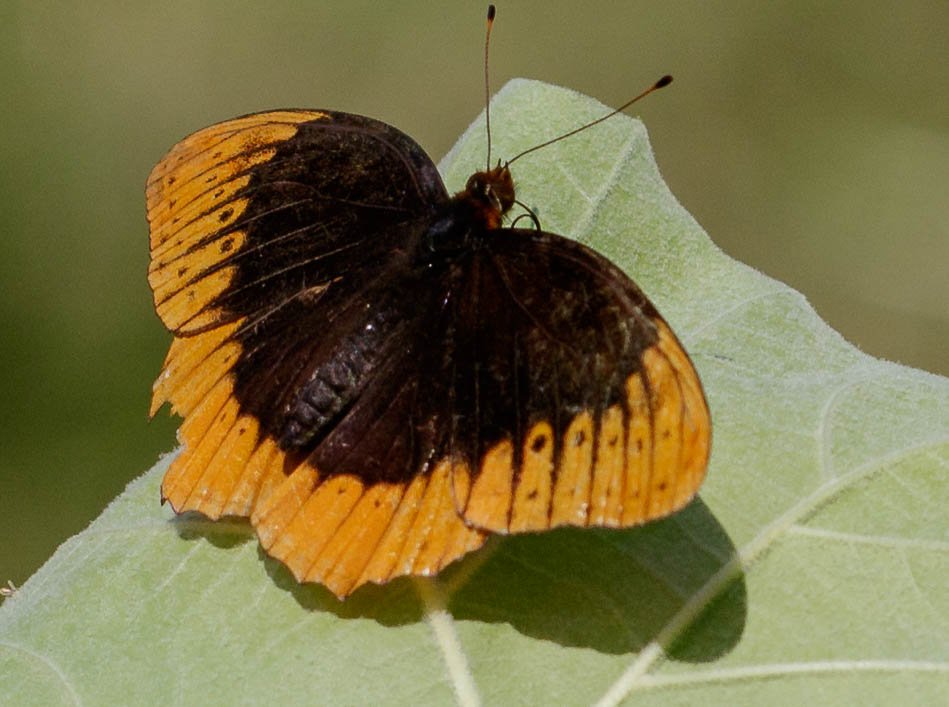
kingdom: Animalia
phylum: Arthropoda
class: Insecta
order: Lepidoptera
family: Nymphalidae
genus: Speyeria
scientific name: Speyeria diana
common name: Diana Fritillary
